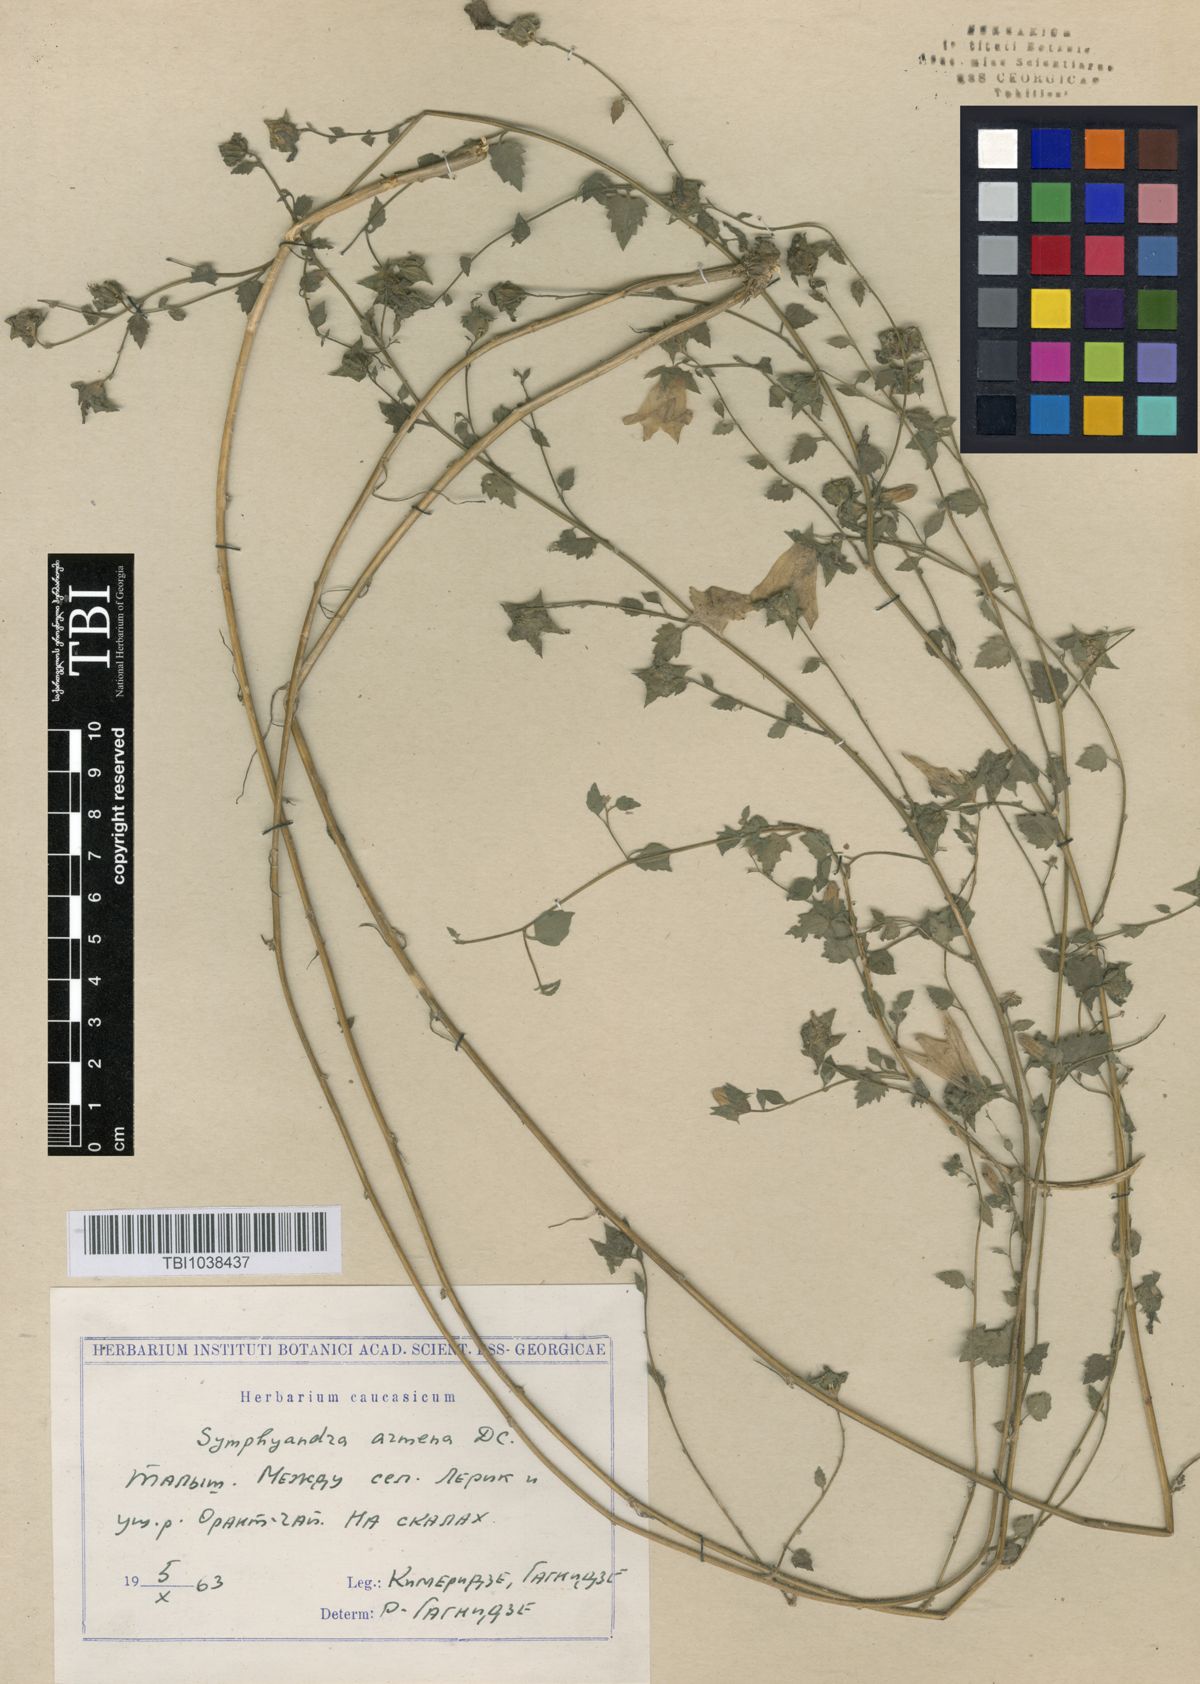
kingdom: Plantae
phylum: Tracheophyta
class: Magnoliopsida
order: Asterales
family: Campanulaceae
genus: Campanula
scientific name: Campanula armena
